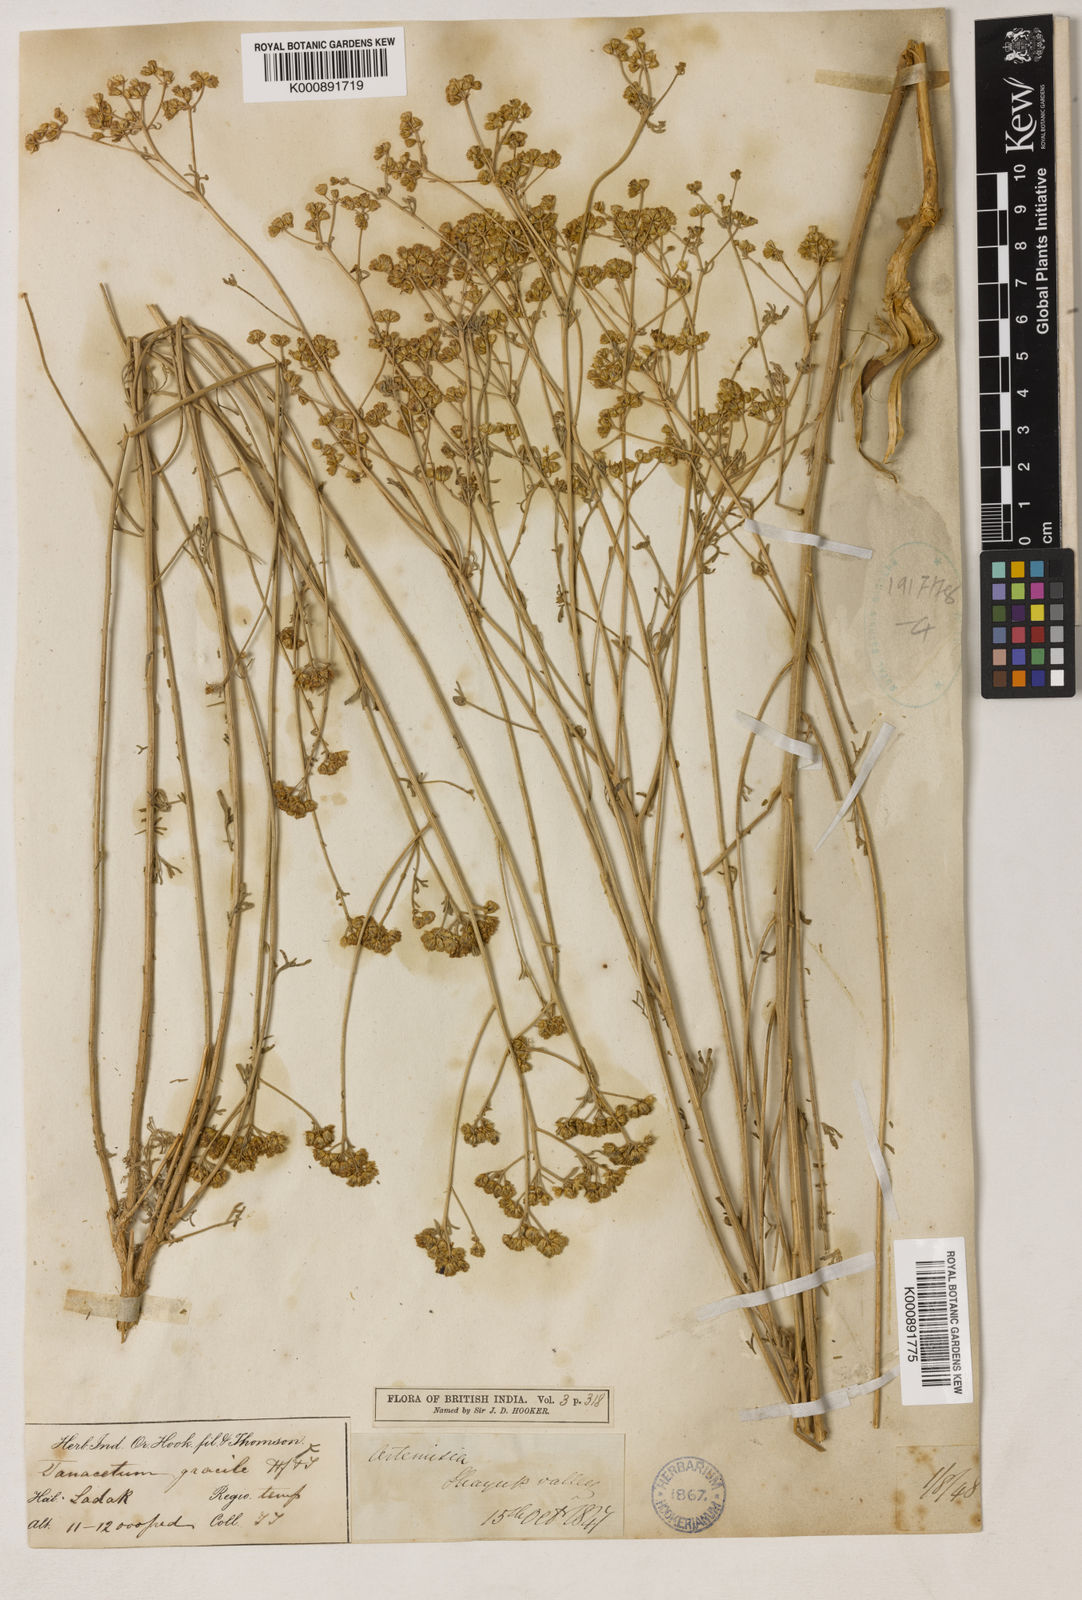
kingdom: Plantae
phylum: Tracheophyta
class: Magnoliopsida
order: Asterales
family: Asteraceae
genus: Ajania
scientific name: Ajania
